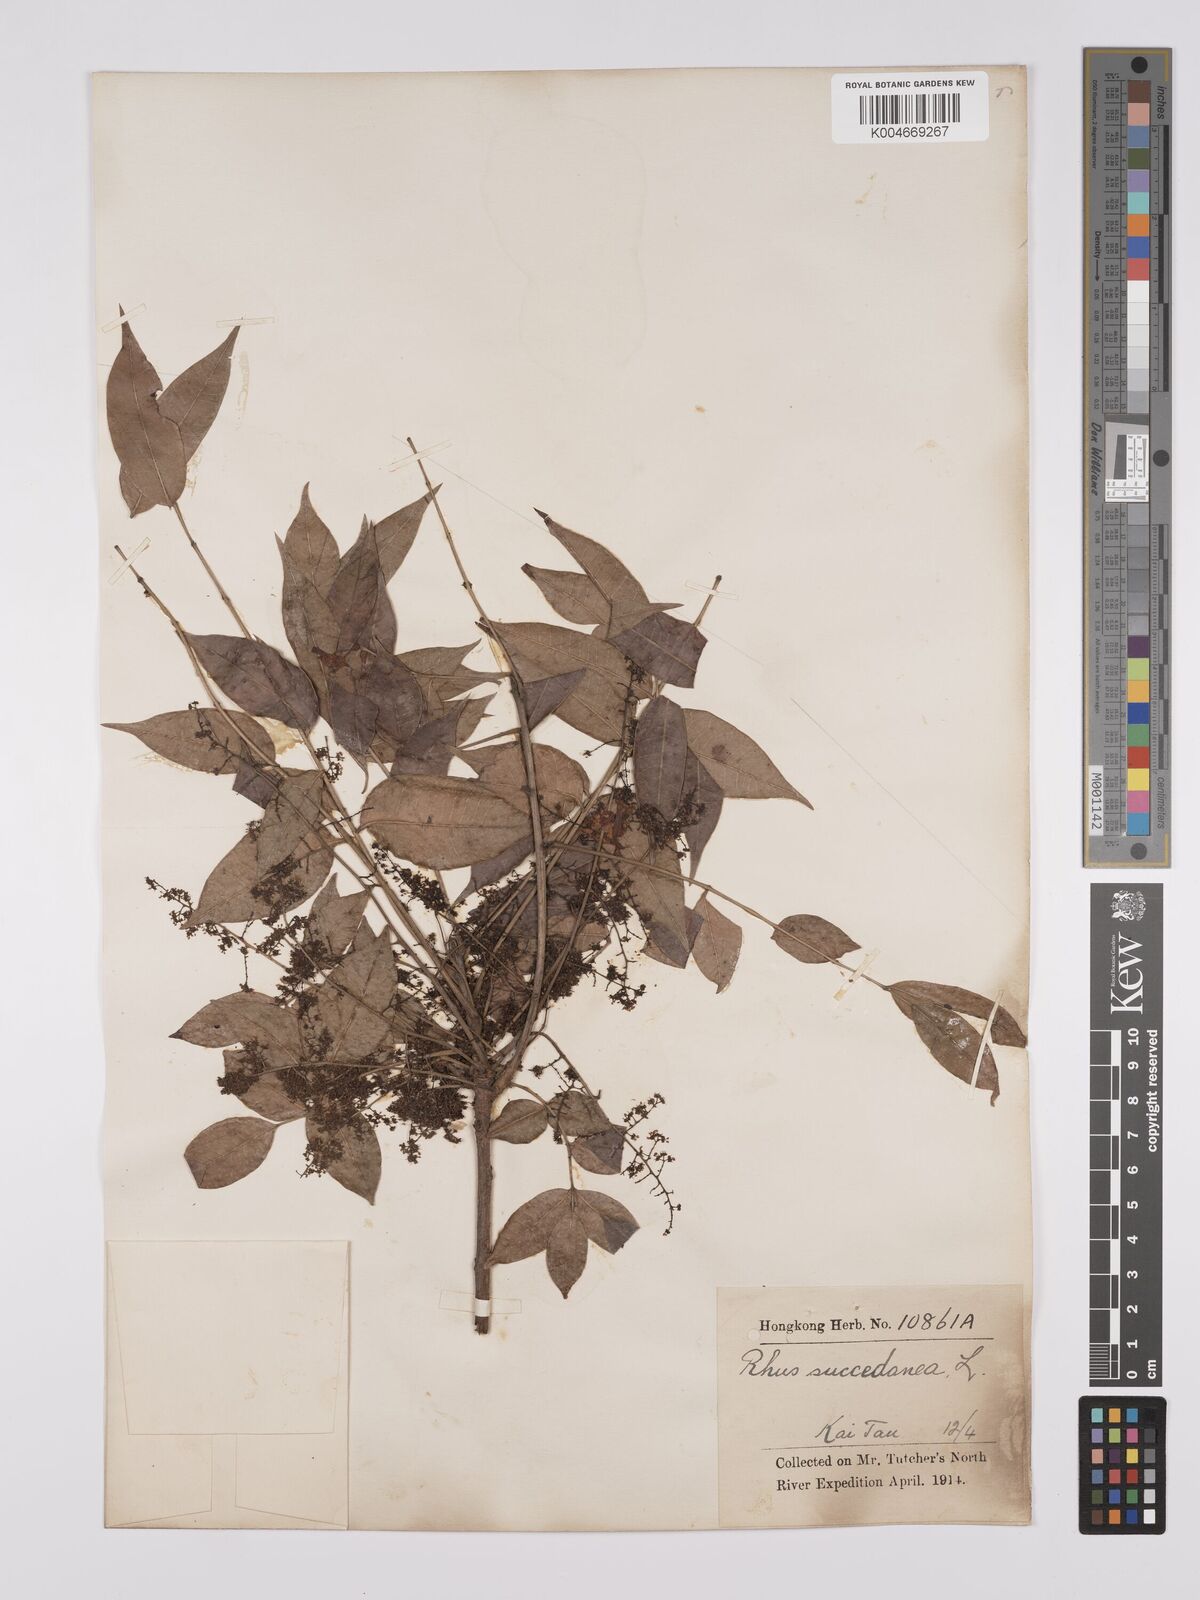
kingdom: Plantae
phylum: Tracheophyta
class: Magnoliopsida
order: Sapindales
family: Anacardiaceae
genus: Toxicodendron
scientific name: Toxicodendron succedaneum
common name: Wax tree
